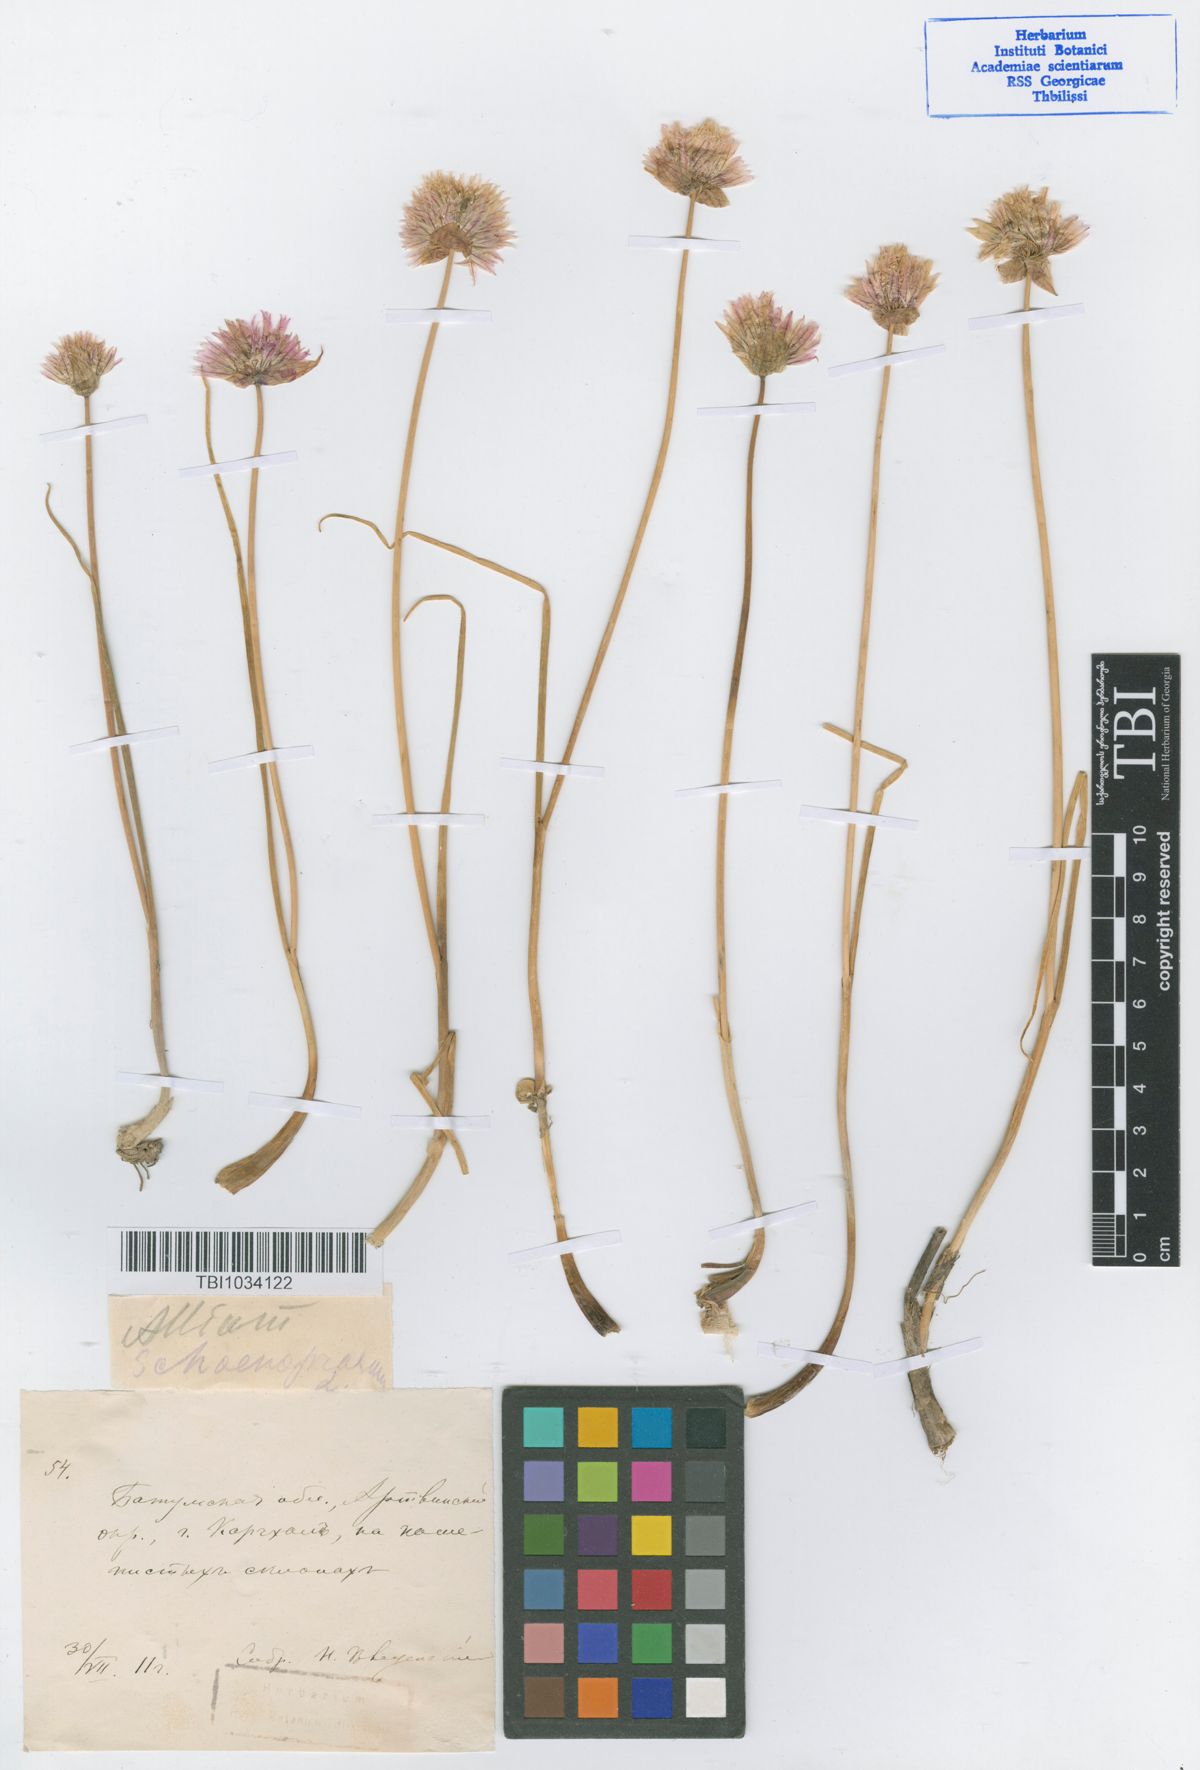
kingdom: Plantae
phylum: Tracheophyta
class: Liliopsida
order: Asparagales
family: Amaryllidaceae
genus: Allium
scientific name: Allium schoenoprasum
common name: Chives
